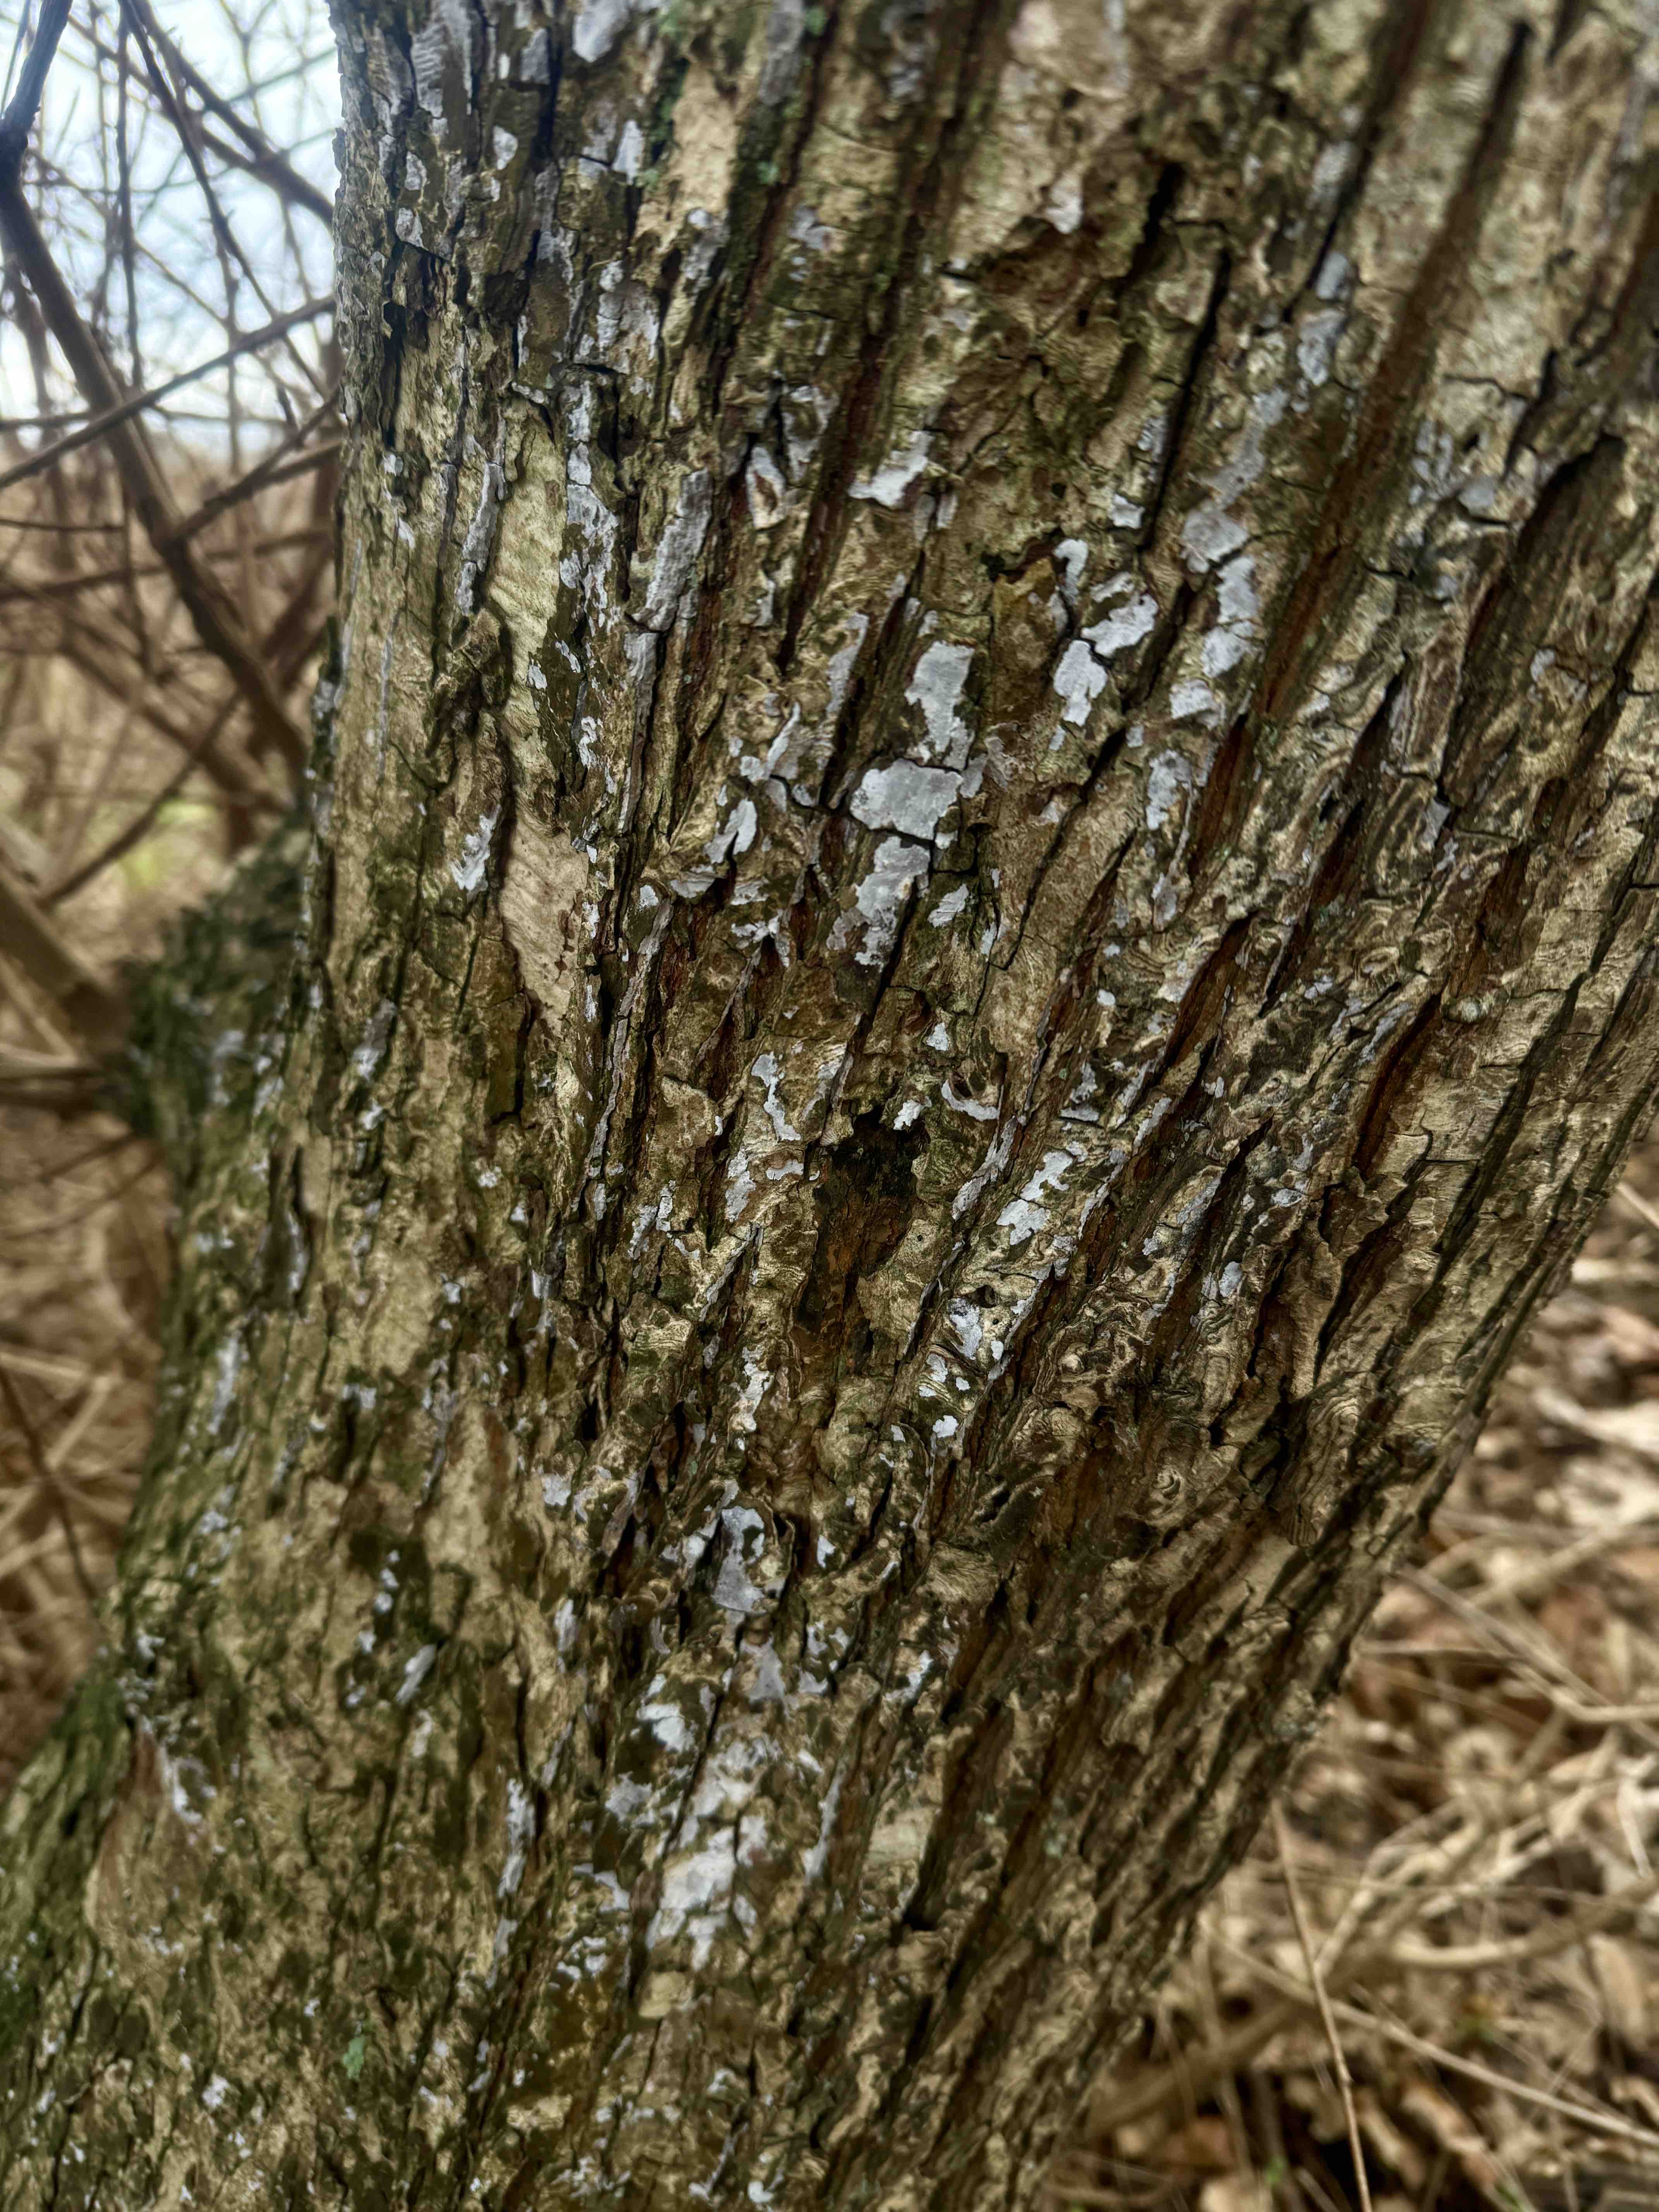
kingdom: Fungi
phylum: Basidiomycota
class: Agaricomycetes
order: Agaricales
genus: Dendrothele
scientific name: Dendrothele acerina
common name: navr-kalkplet
